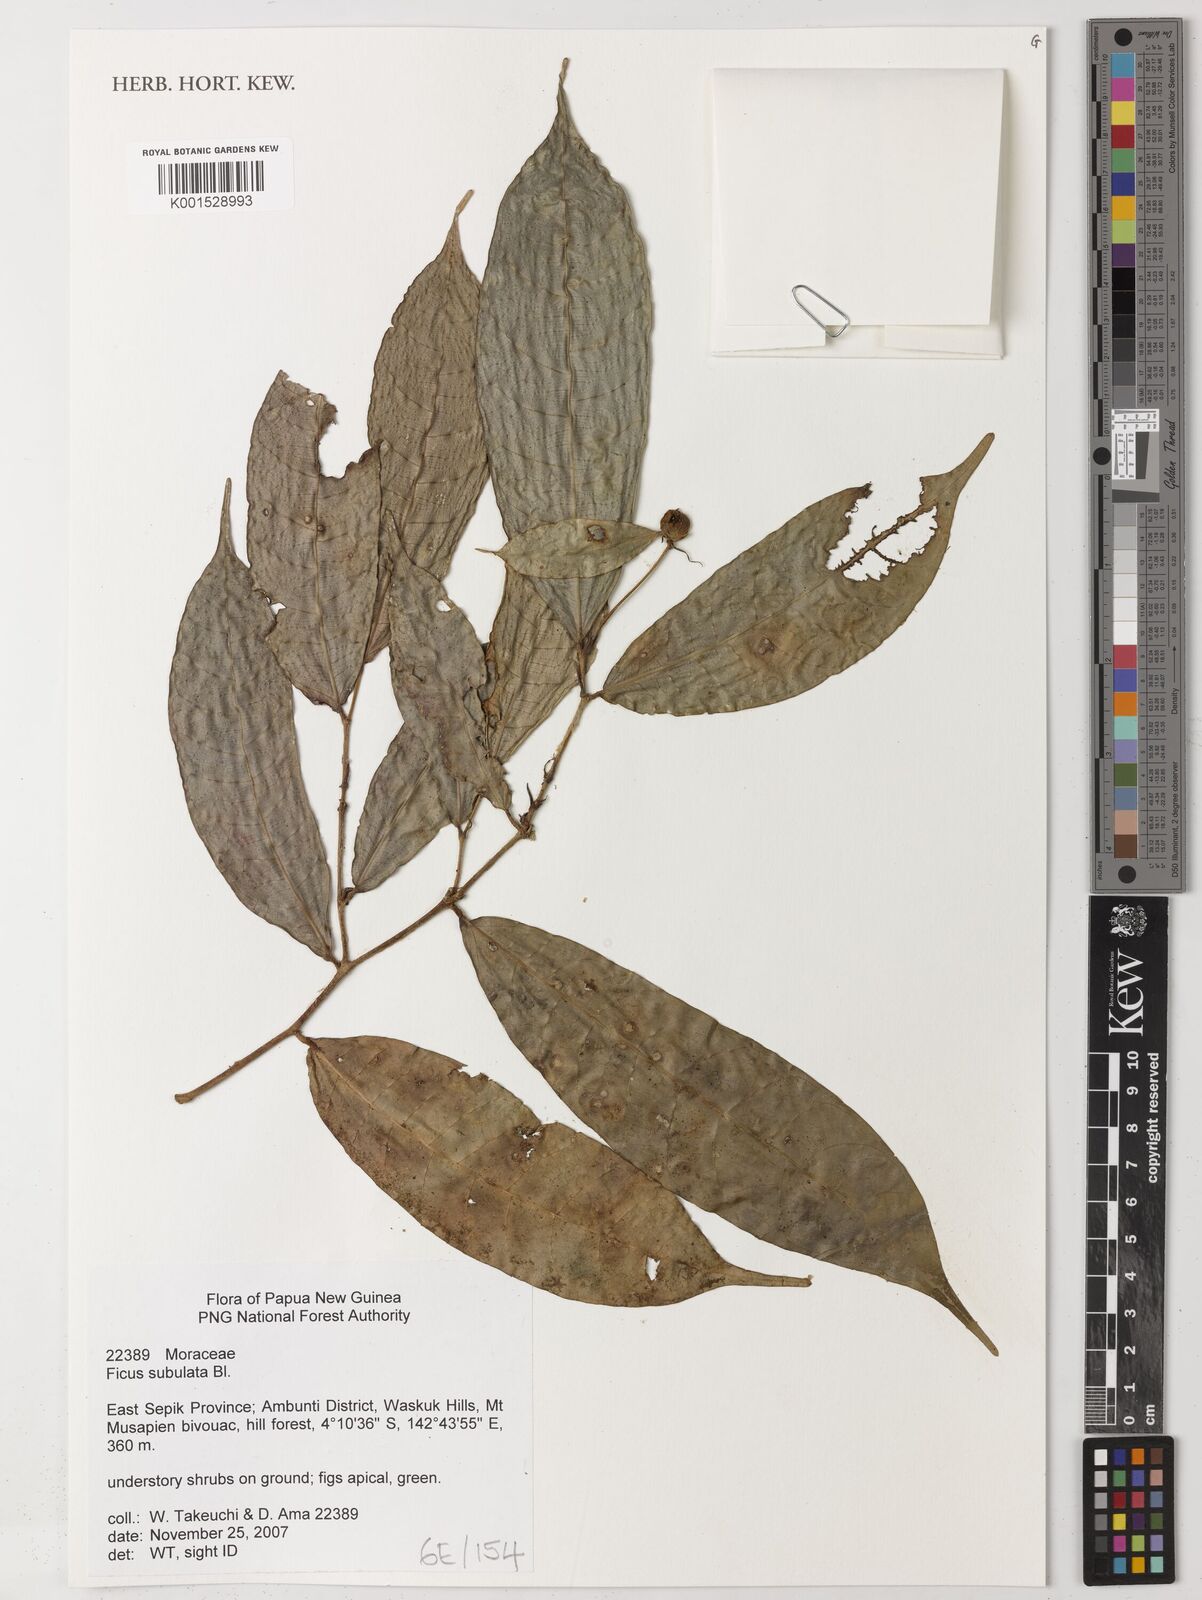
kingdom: Plantae
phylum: Tracheophyta
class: Magnoliopsida
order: Rosales
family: Moraceae
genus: Ficus
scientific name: Ficus subulata
